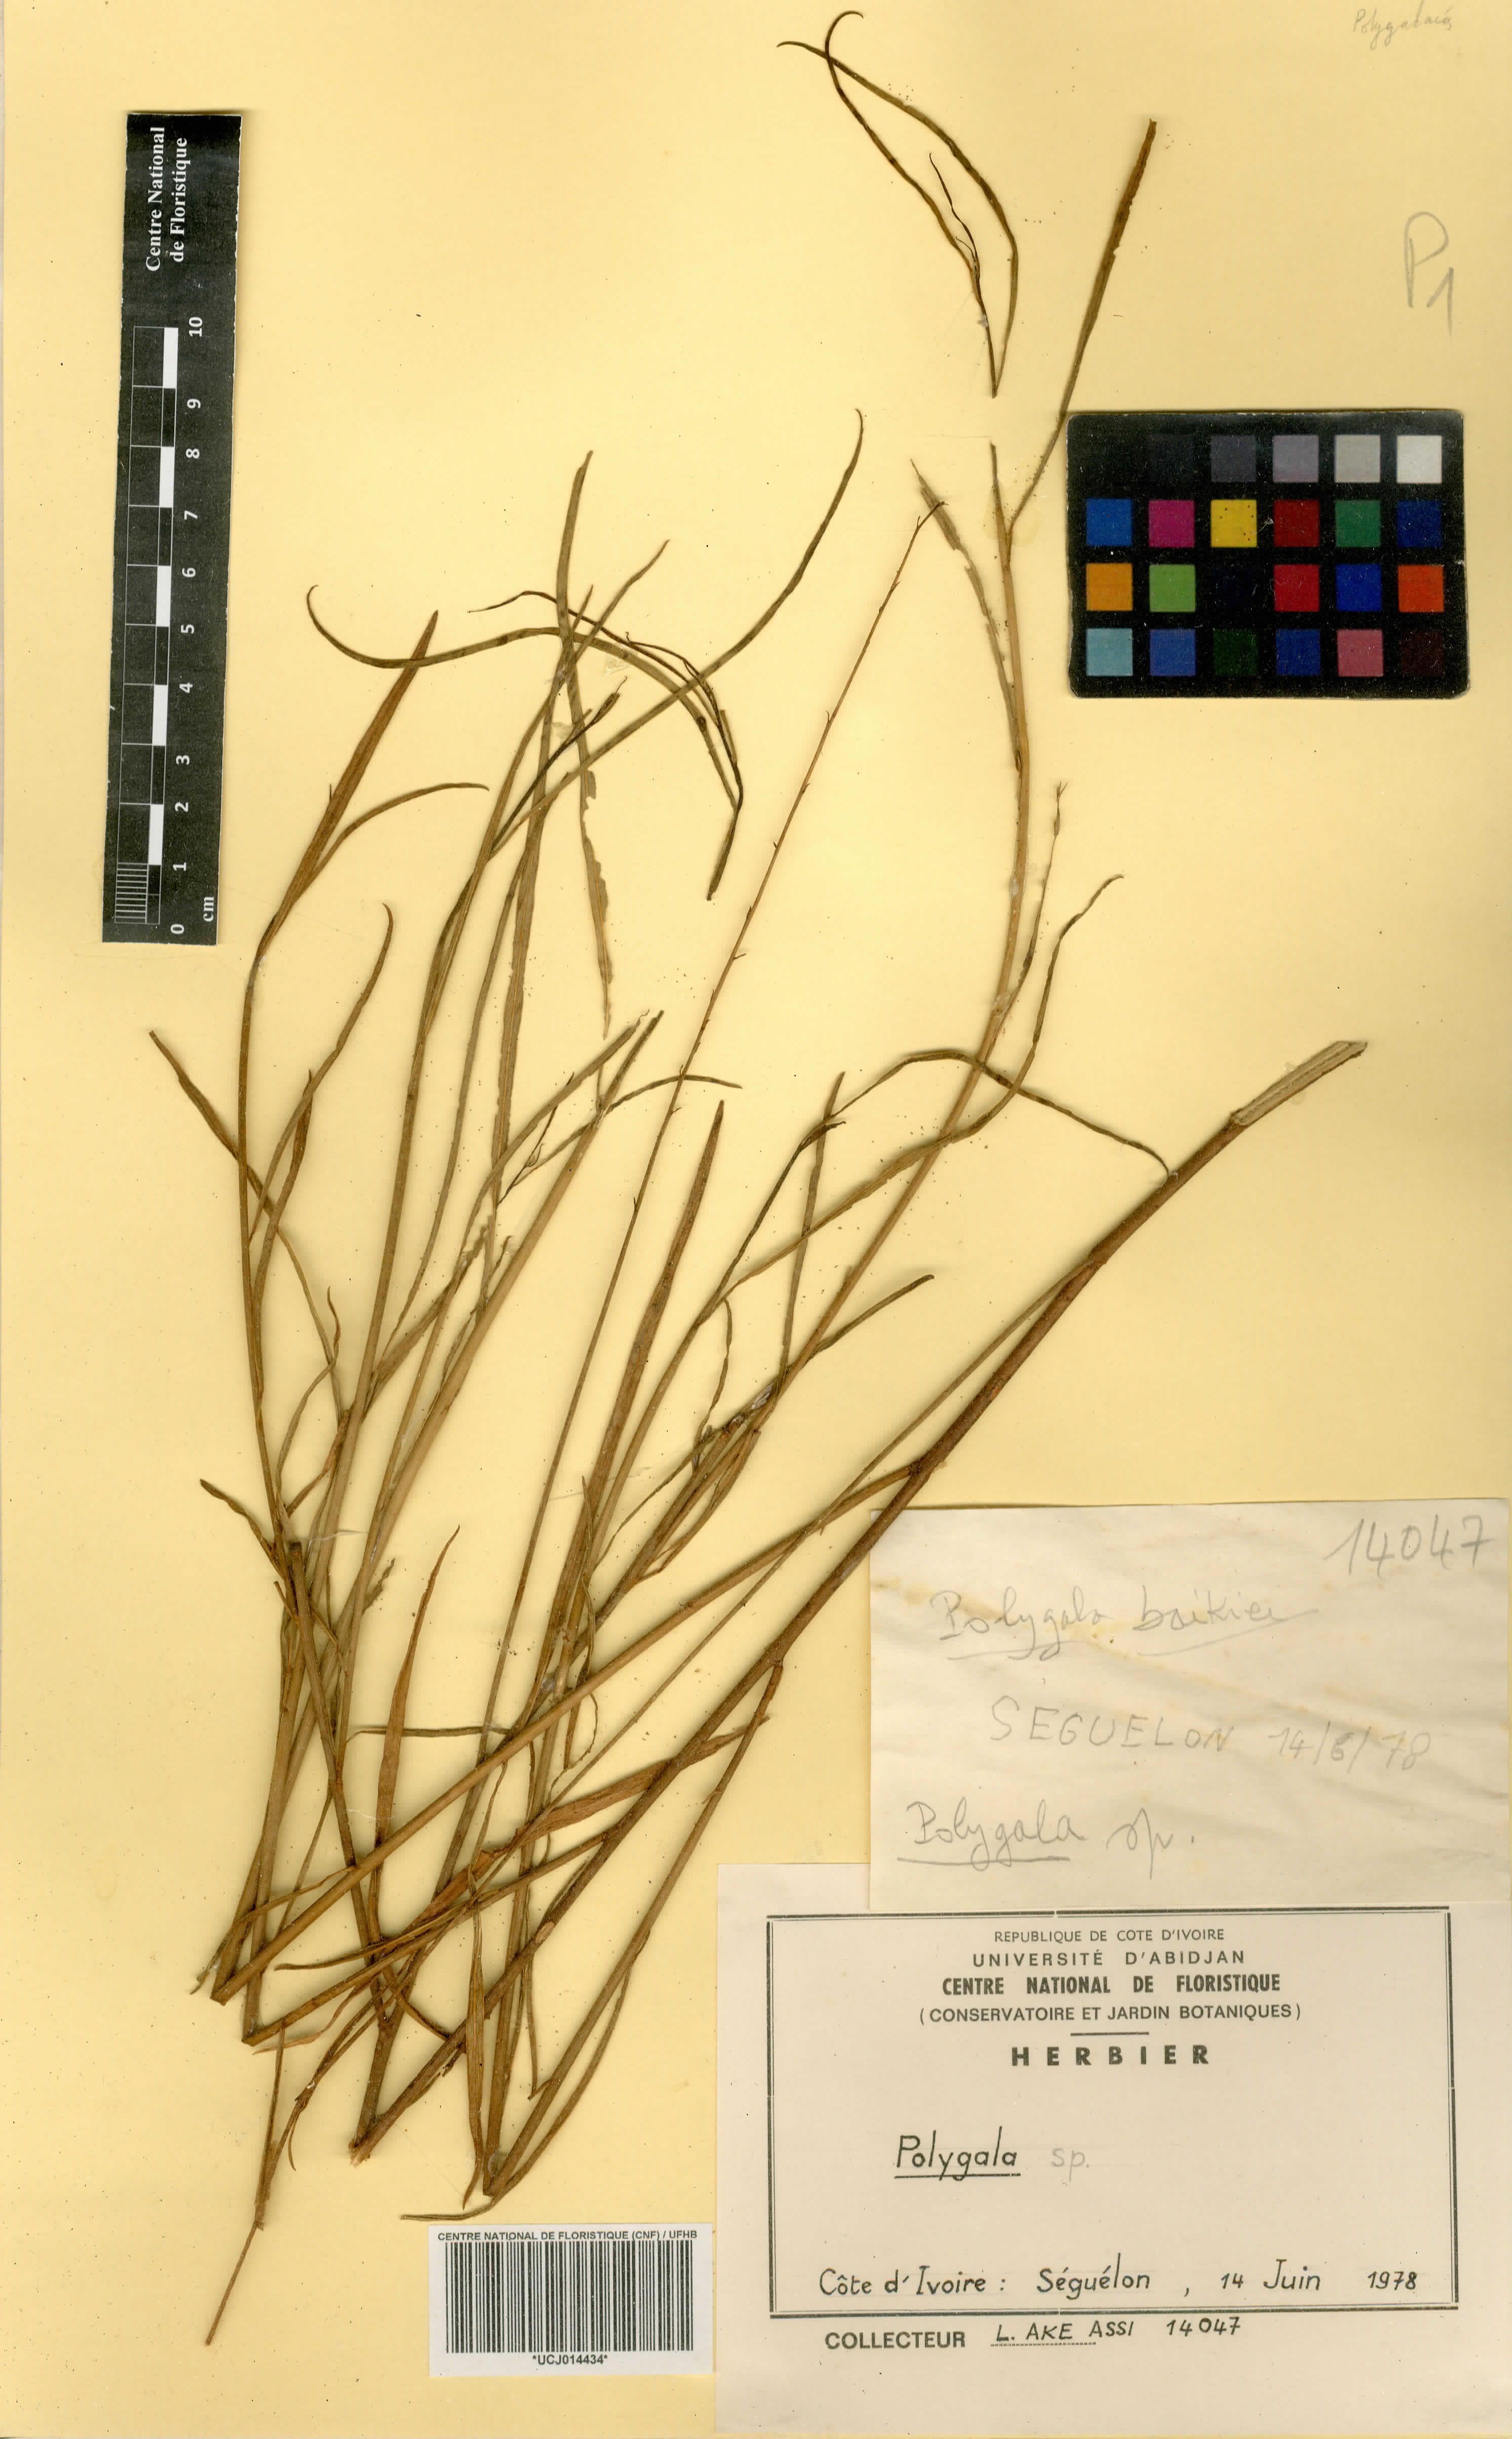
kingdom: Plantae
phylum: Tracheophyta
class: Magnoliopsida
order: Fabales
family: Polygalaceae
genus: Polygala
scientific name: Polygala
